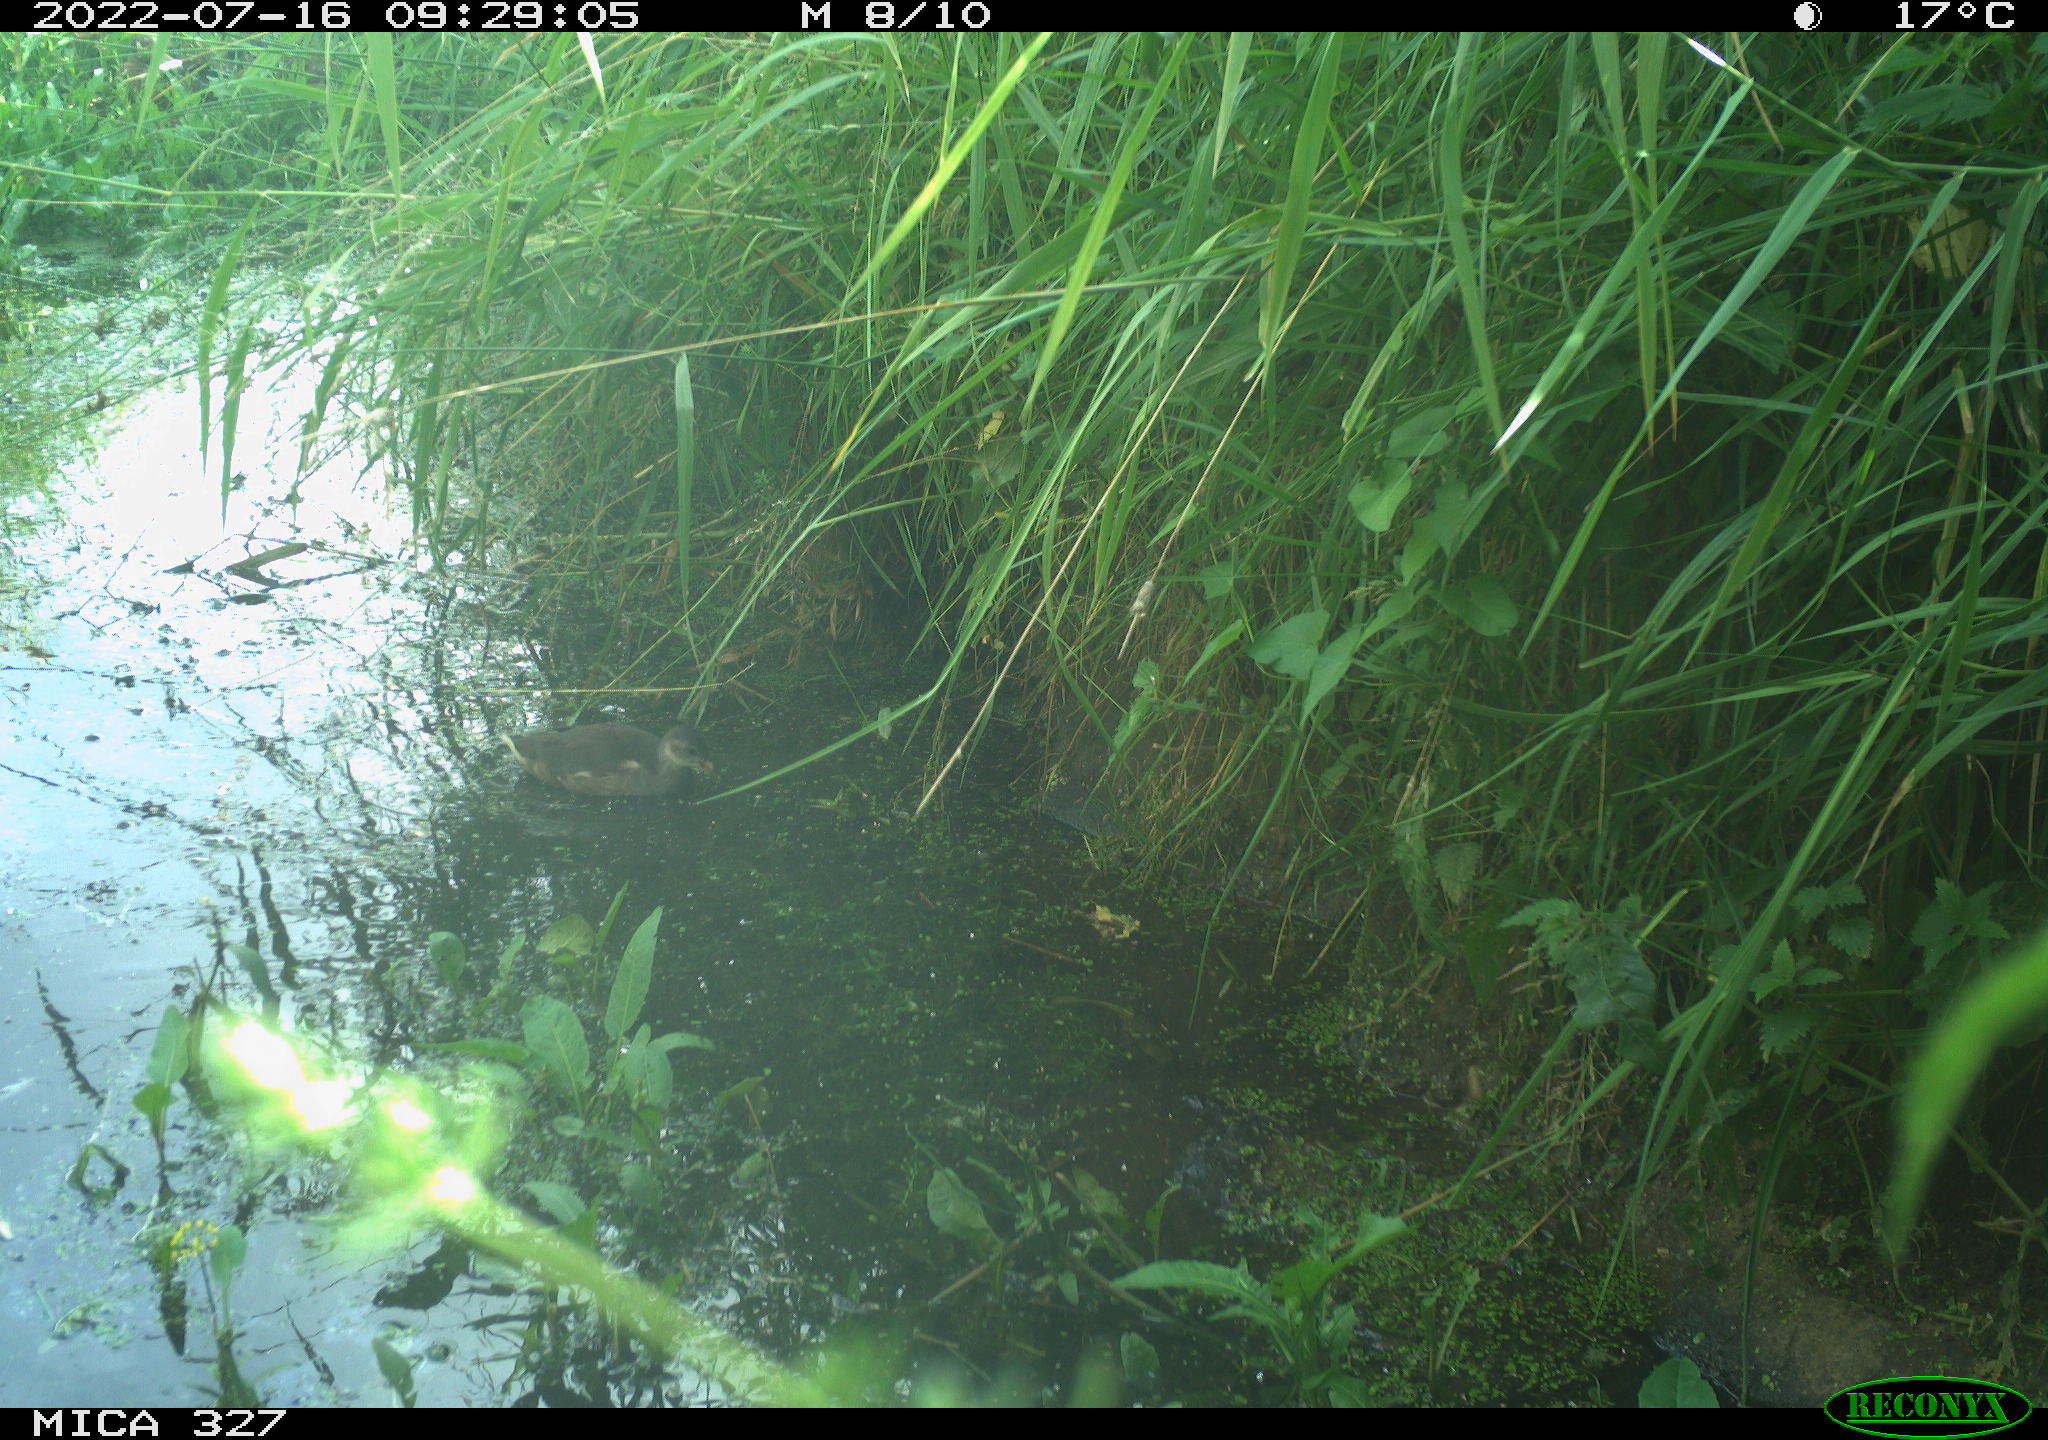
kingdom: Animalia
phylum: Chordata
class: Aves
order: Gruiformes
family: Rallidae
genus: Gallinula
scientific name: Gallinula chloropus
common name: Common moorhen
